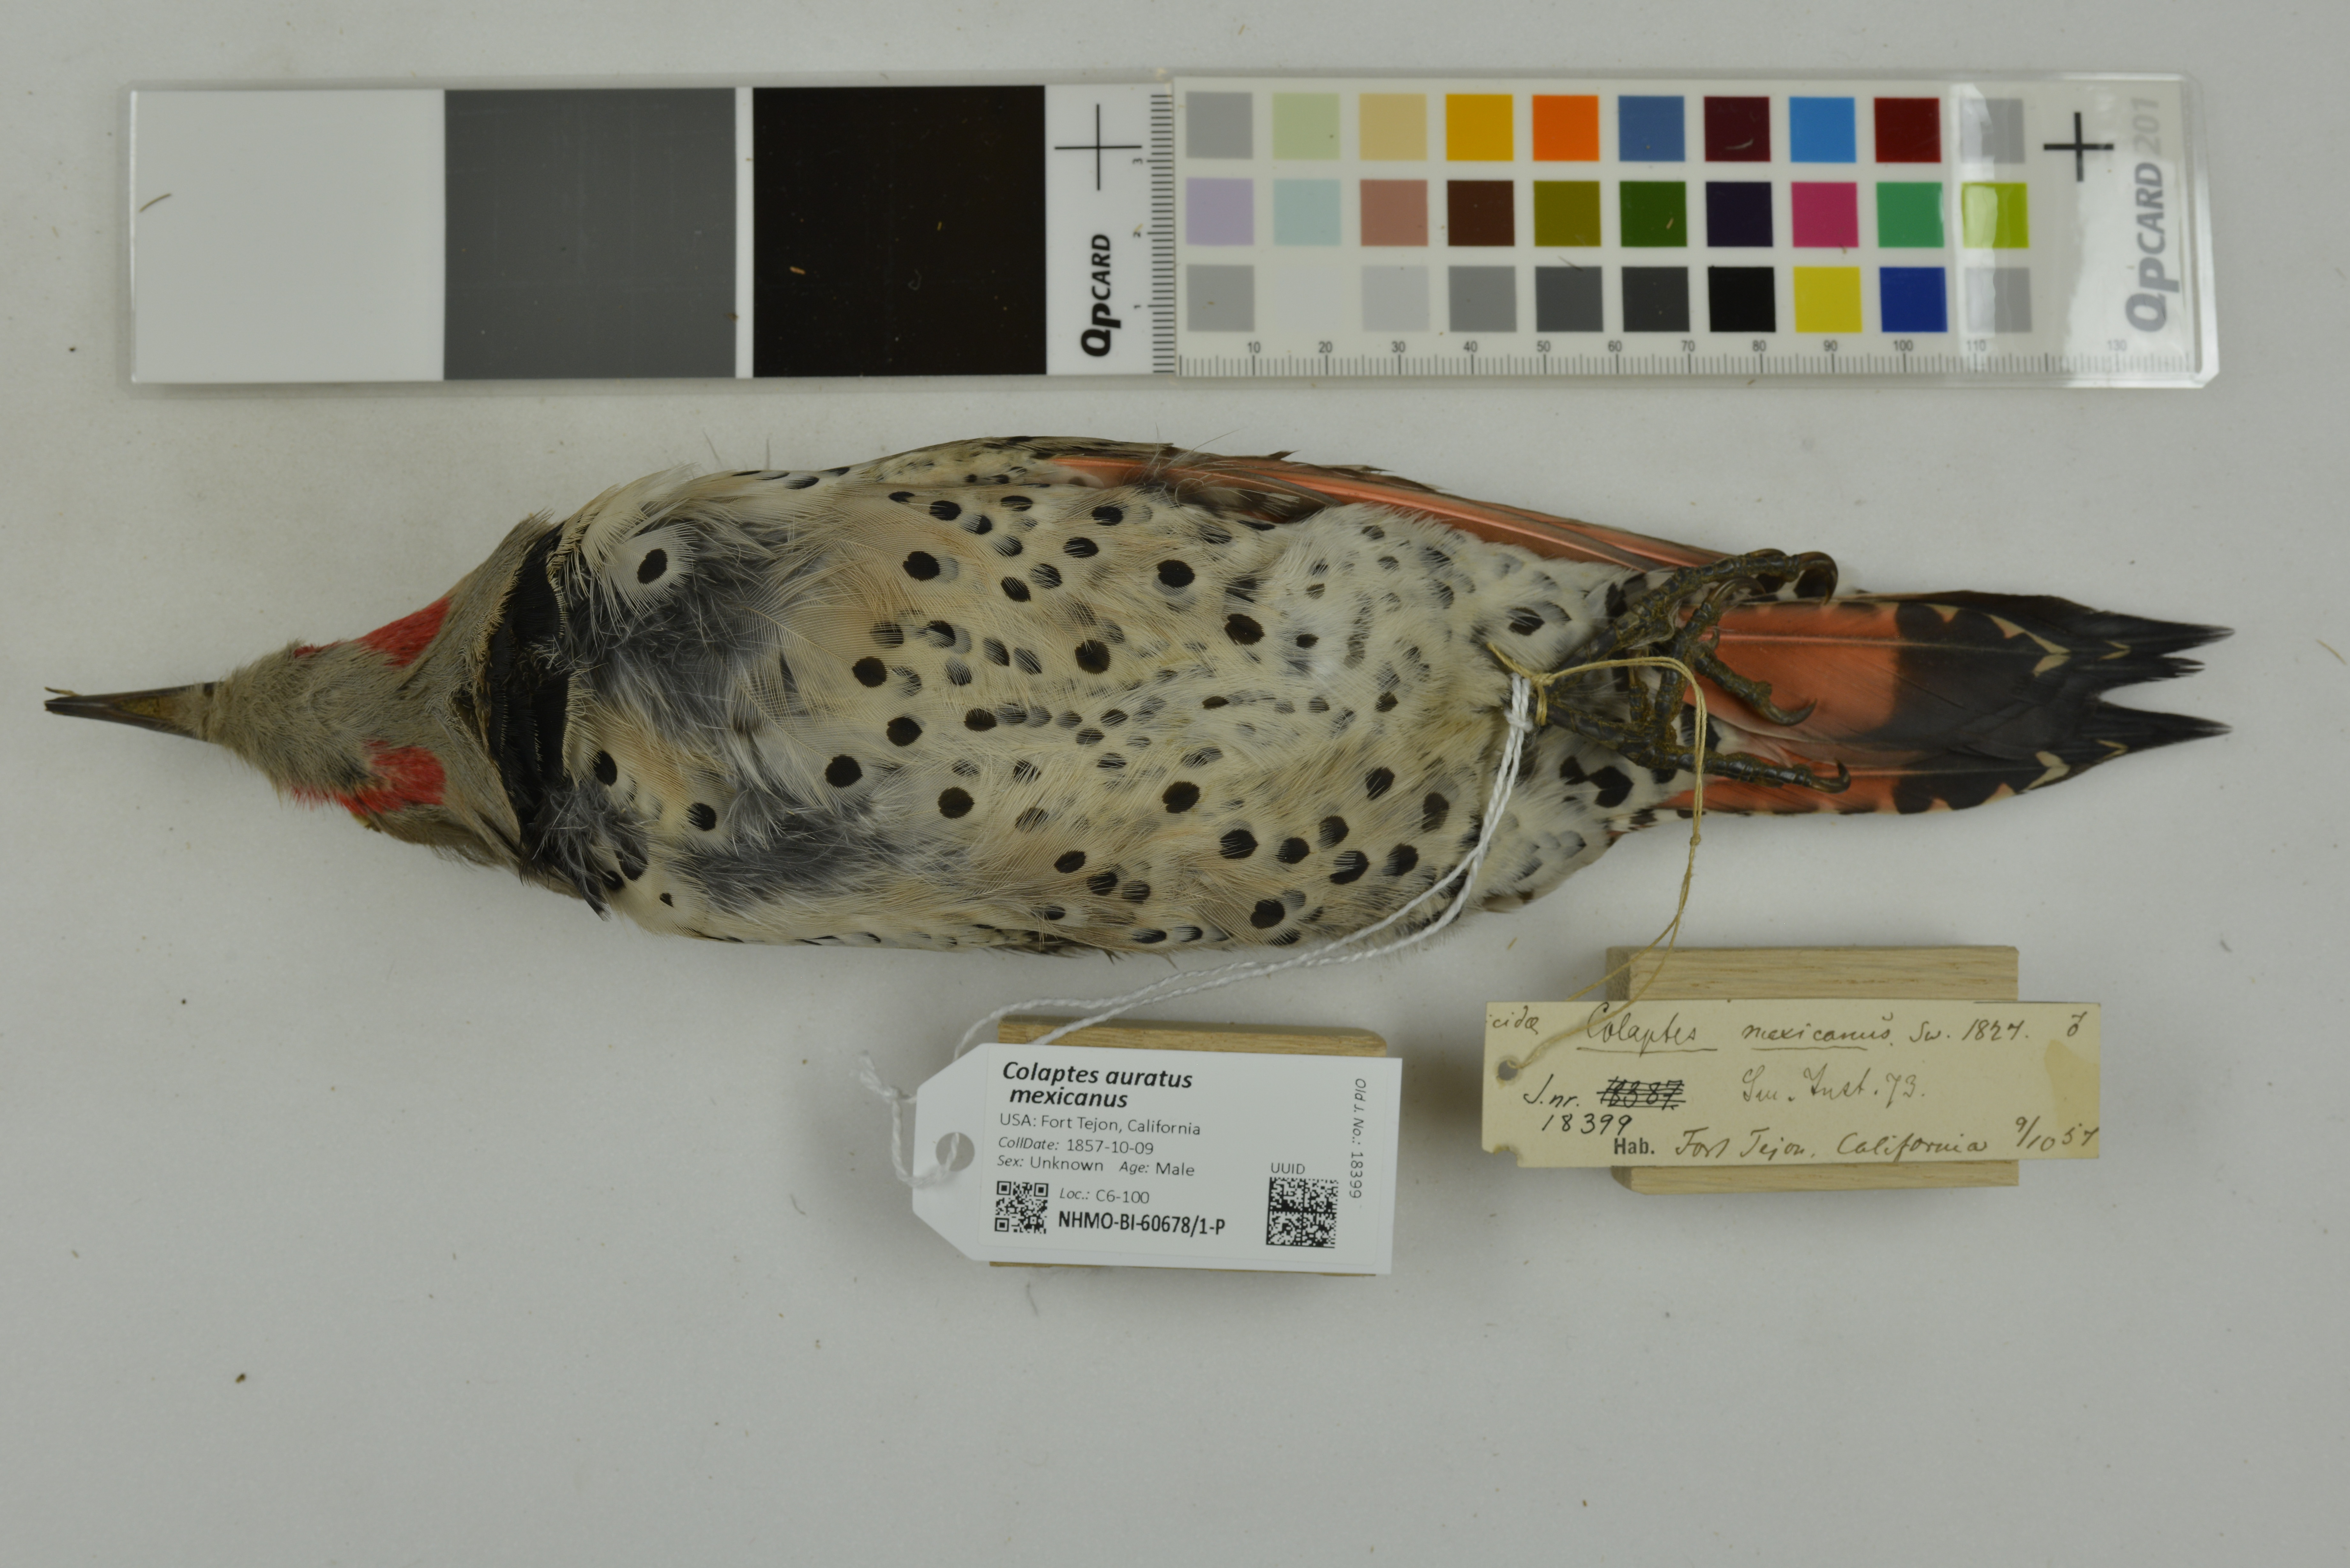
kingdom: Animalia
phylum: Chordata
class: Aves
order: Piciformes
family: Picidae
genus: Colaptes
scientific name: Colaptes auratus
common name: Northern flicker
